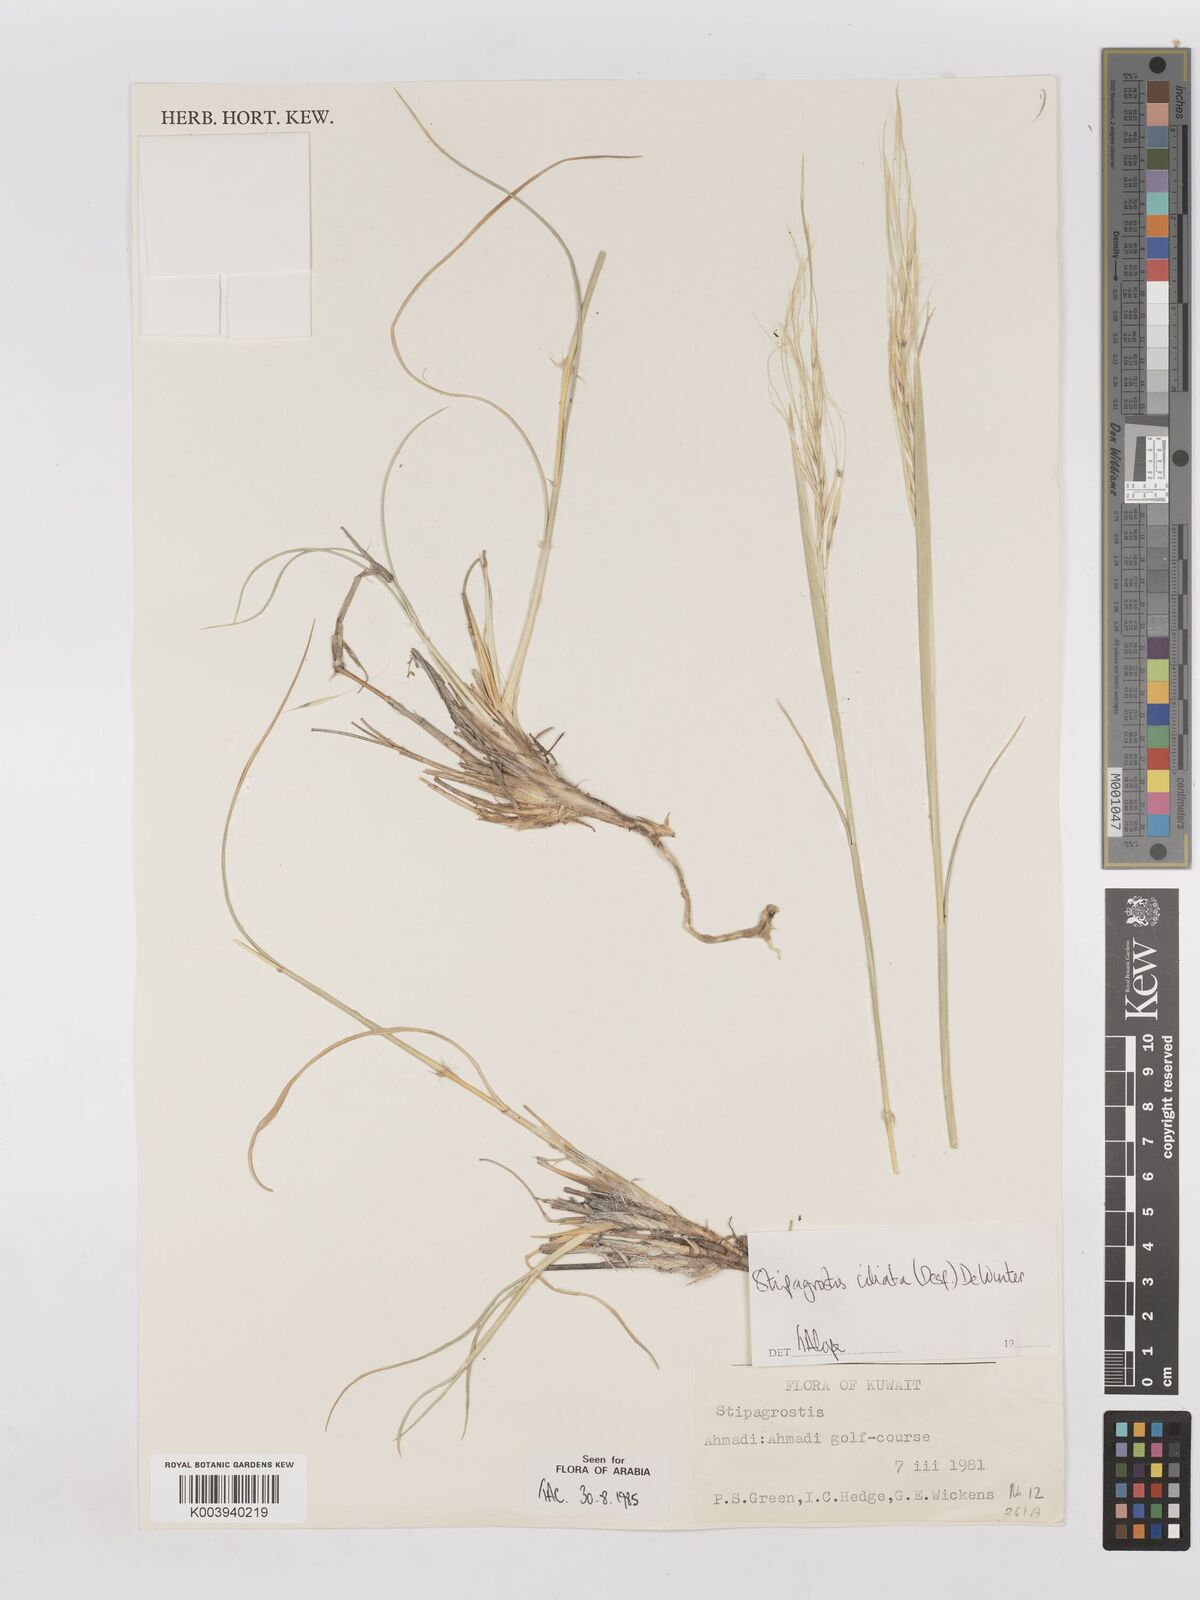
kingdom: Plantae
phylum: Tracheophyta
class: Liliopsida
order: Poales
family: Poaceae
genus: Stipagrostis
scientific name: Stipagrostis ciliata
